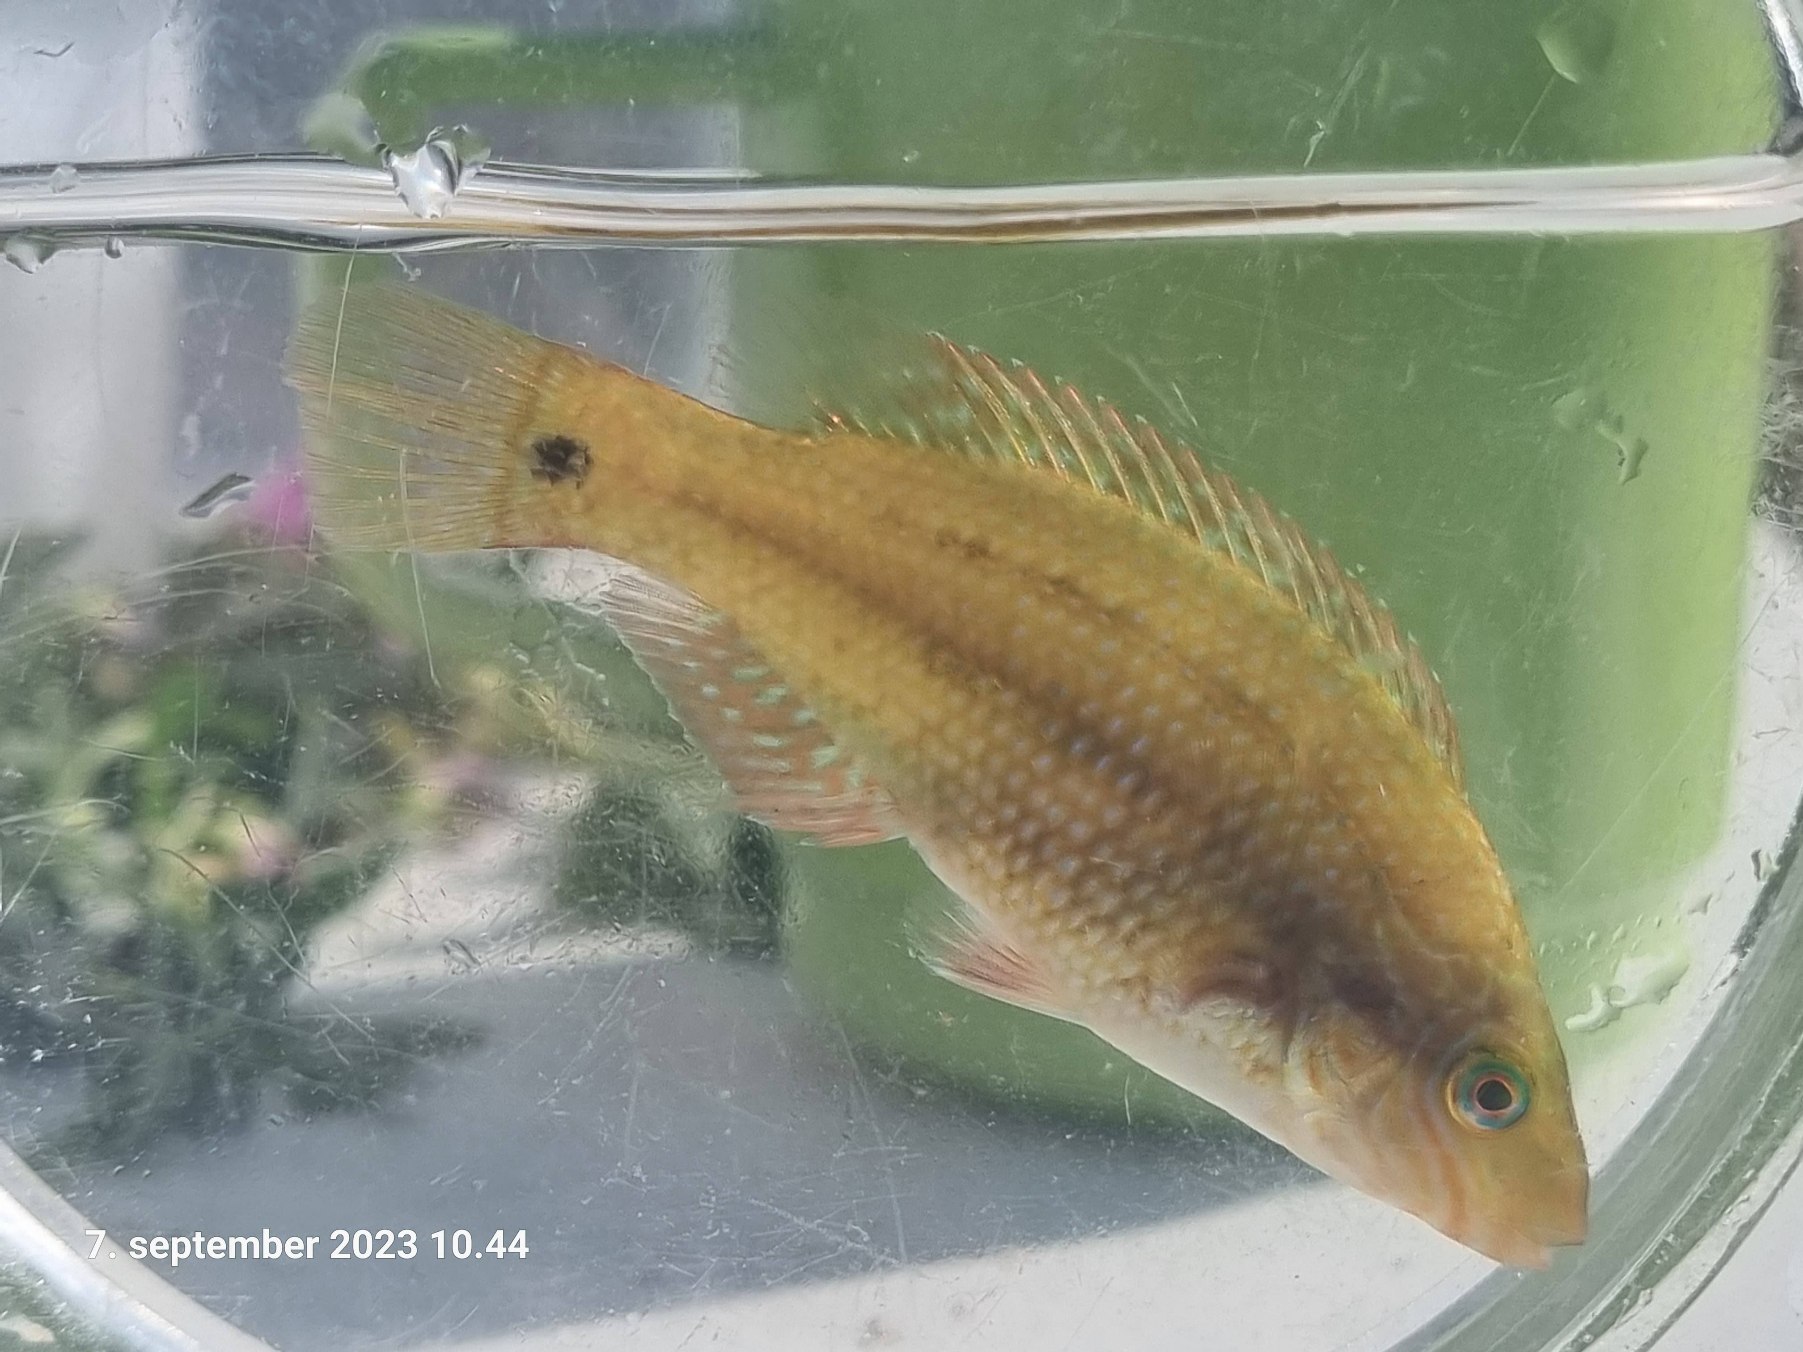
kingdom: Animalia
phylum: Chordata
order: Perciformes
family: Labridae
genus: Symphodus
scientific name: Symphodus melops
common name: Savgylte
